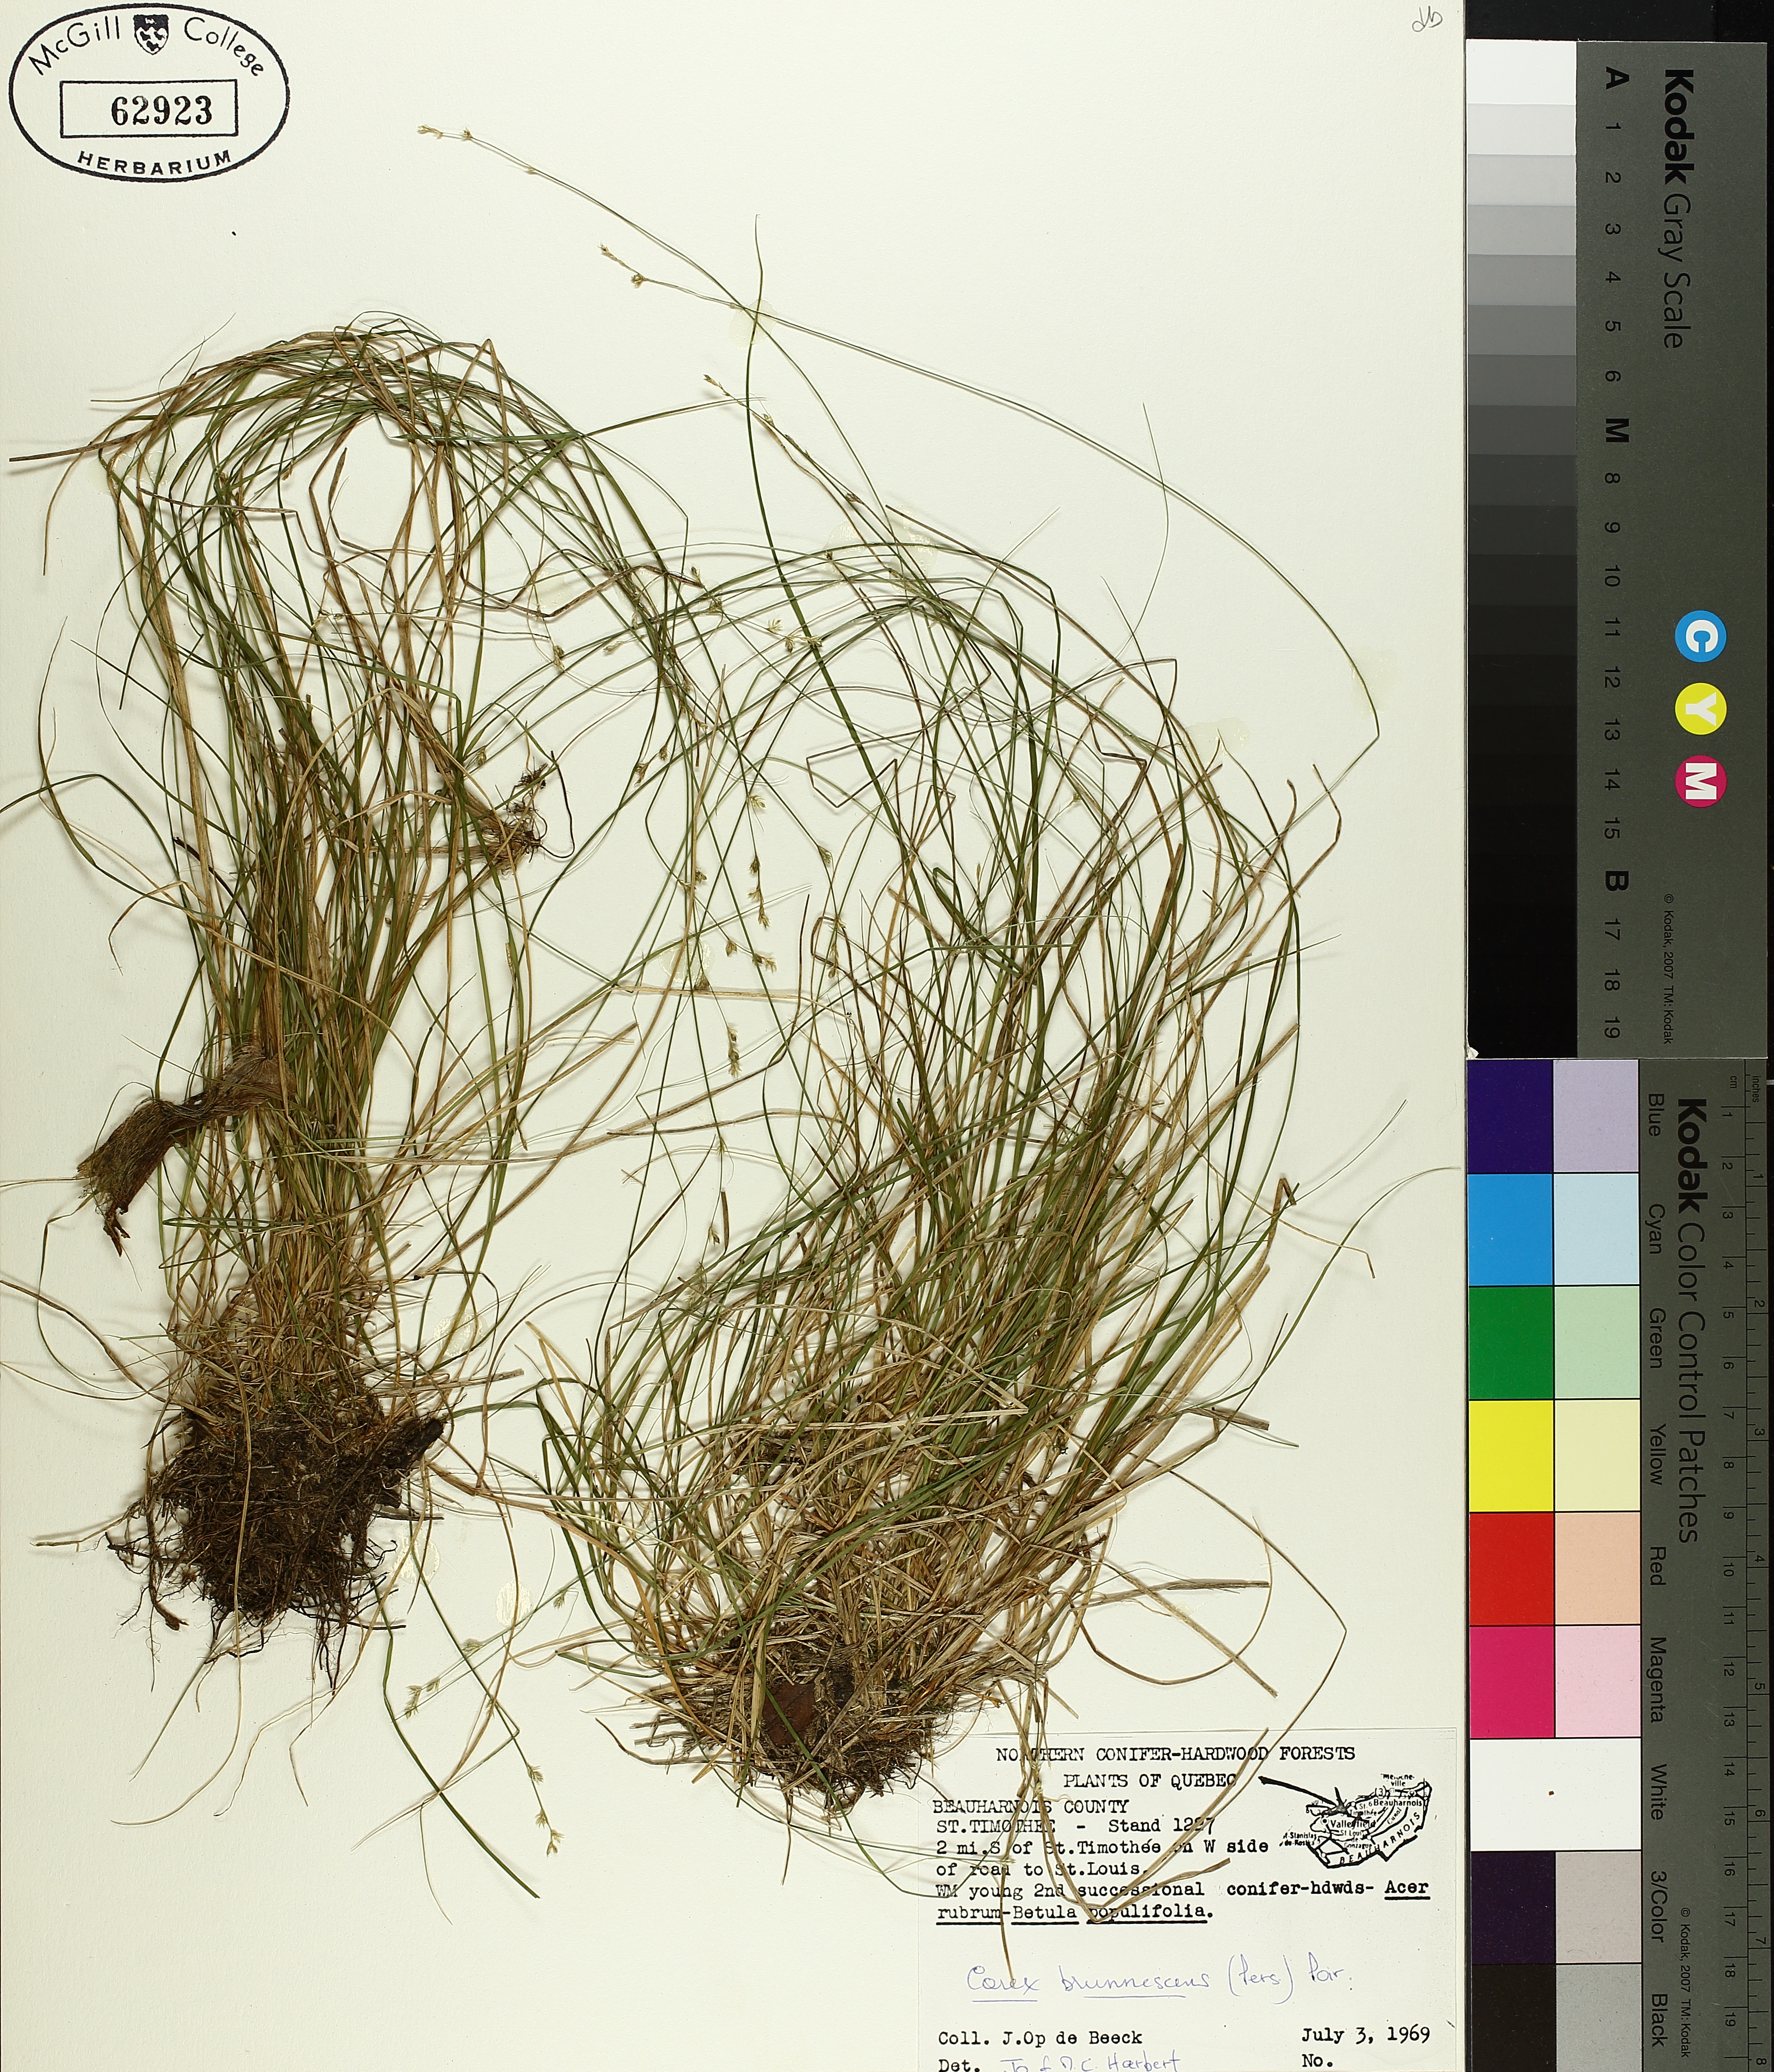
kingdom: Plantae
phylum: Tracheophyta
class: Liliopsida
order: Poales
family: Cyperaceae
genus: Carex
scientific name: Carex brunnescens
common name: Brown sedge
